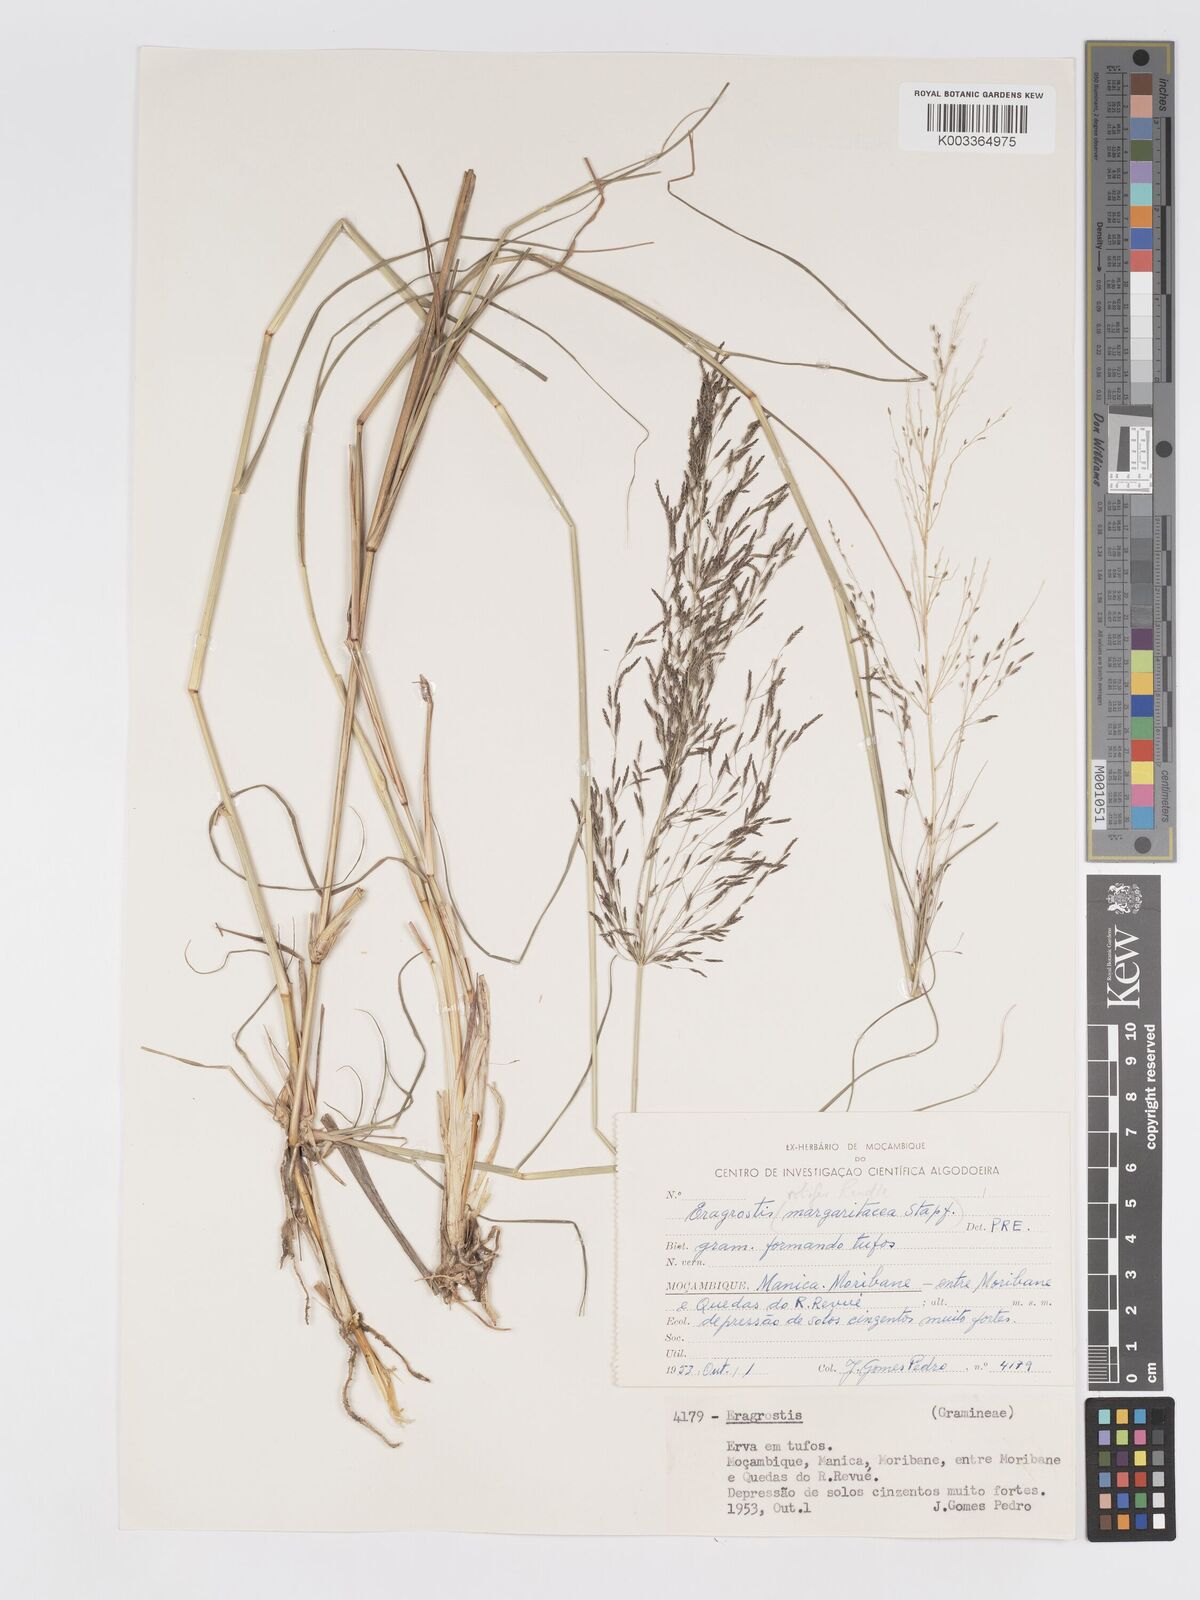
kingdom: Plantae
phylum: Tracheophyta
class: Liliopsida
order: Poales
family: Poaceae
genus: Eragrostis
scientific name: Eragrostis rotifer
